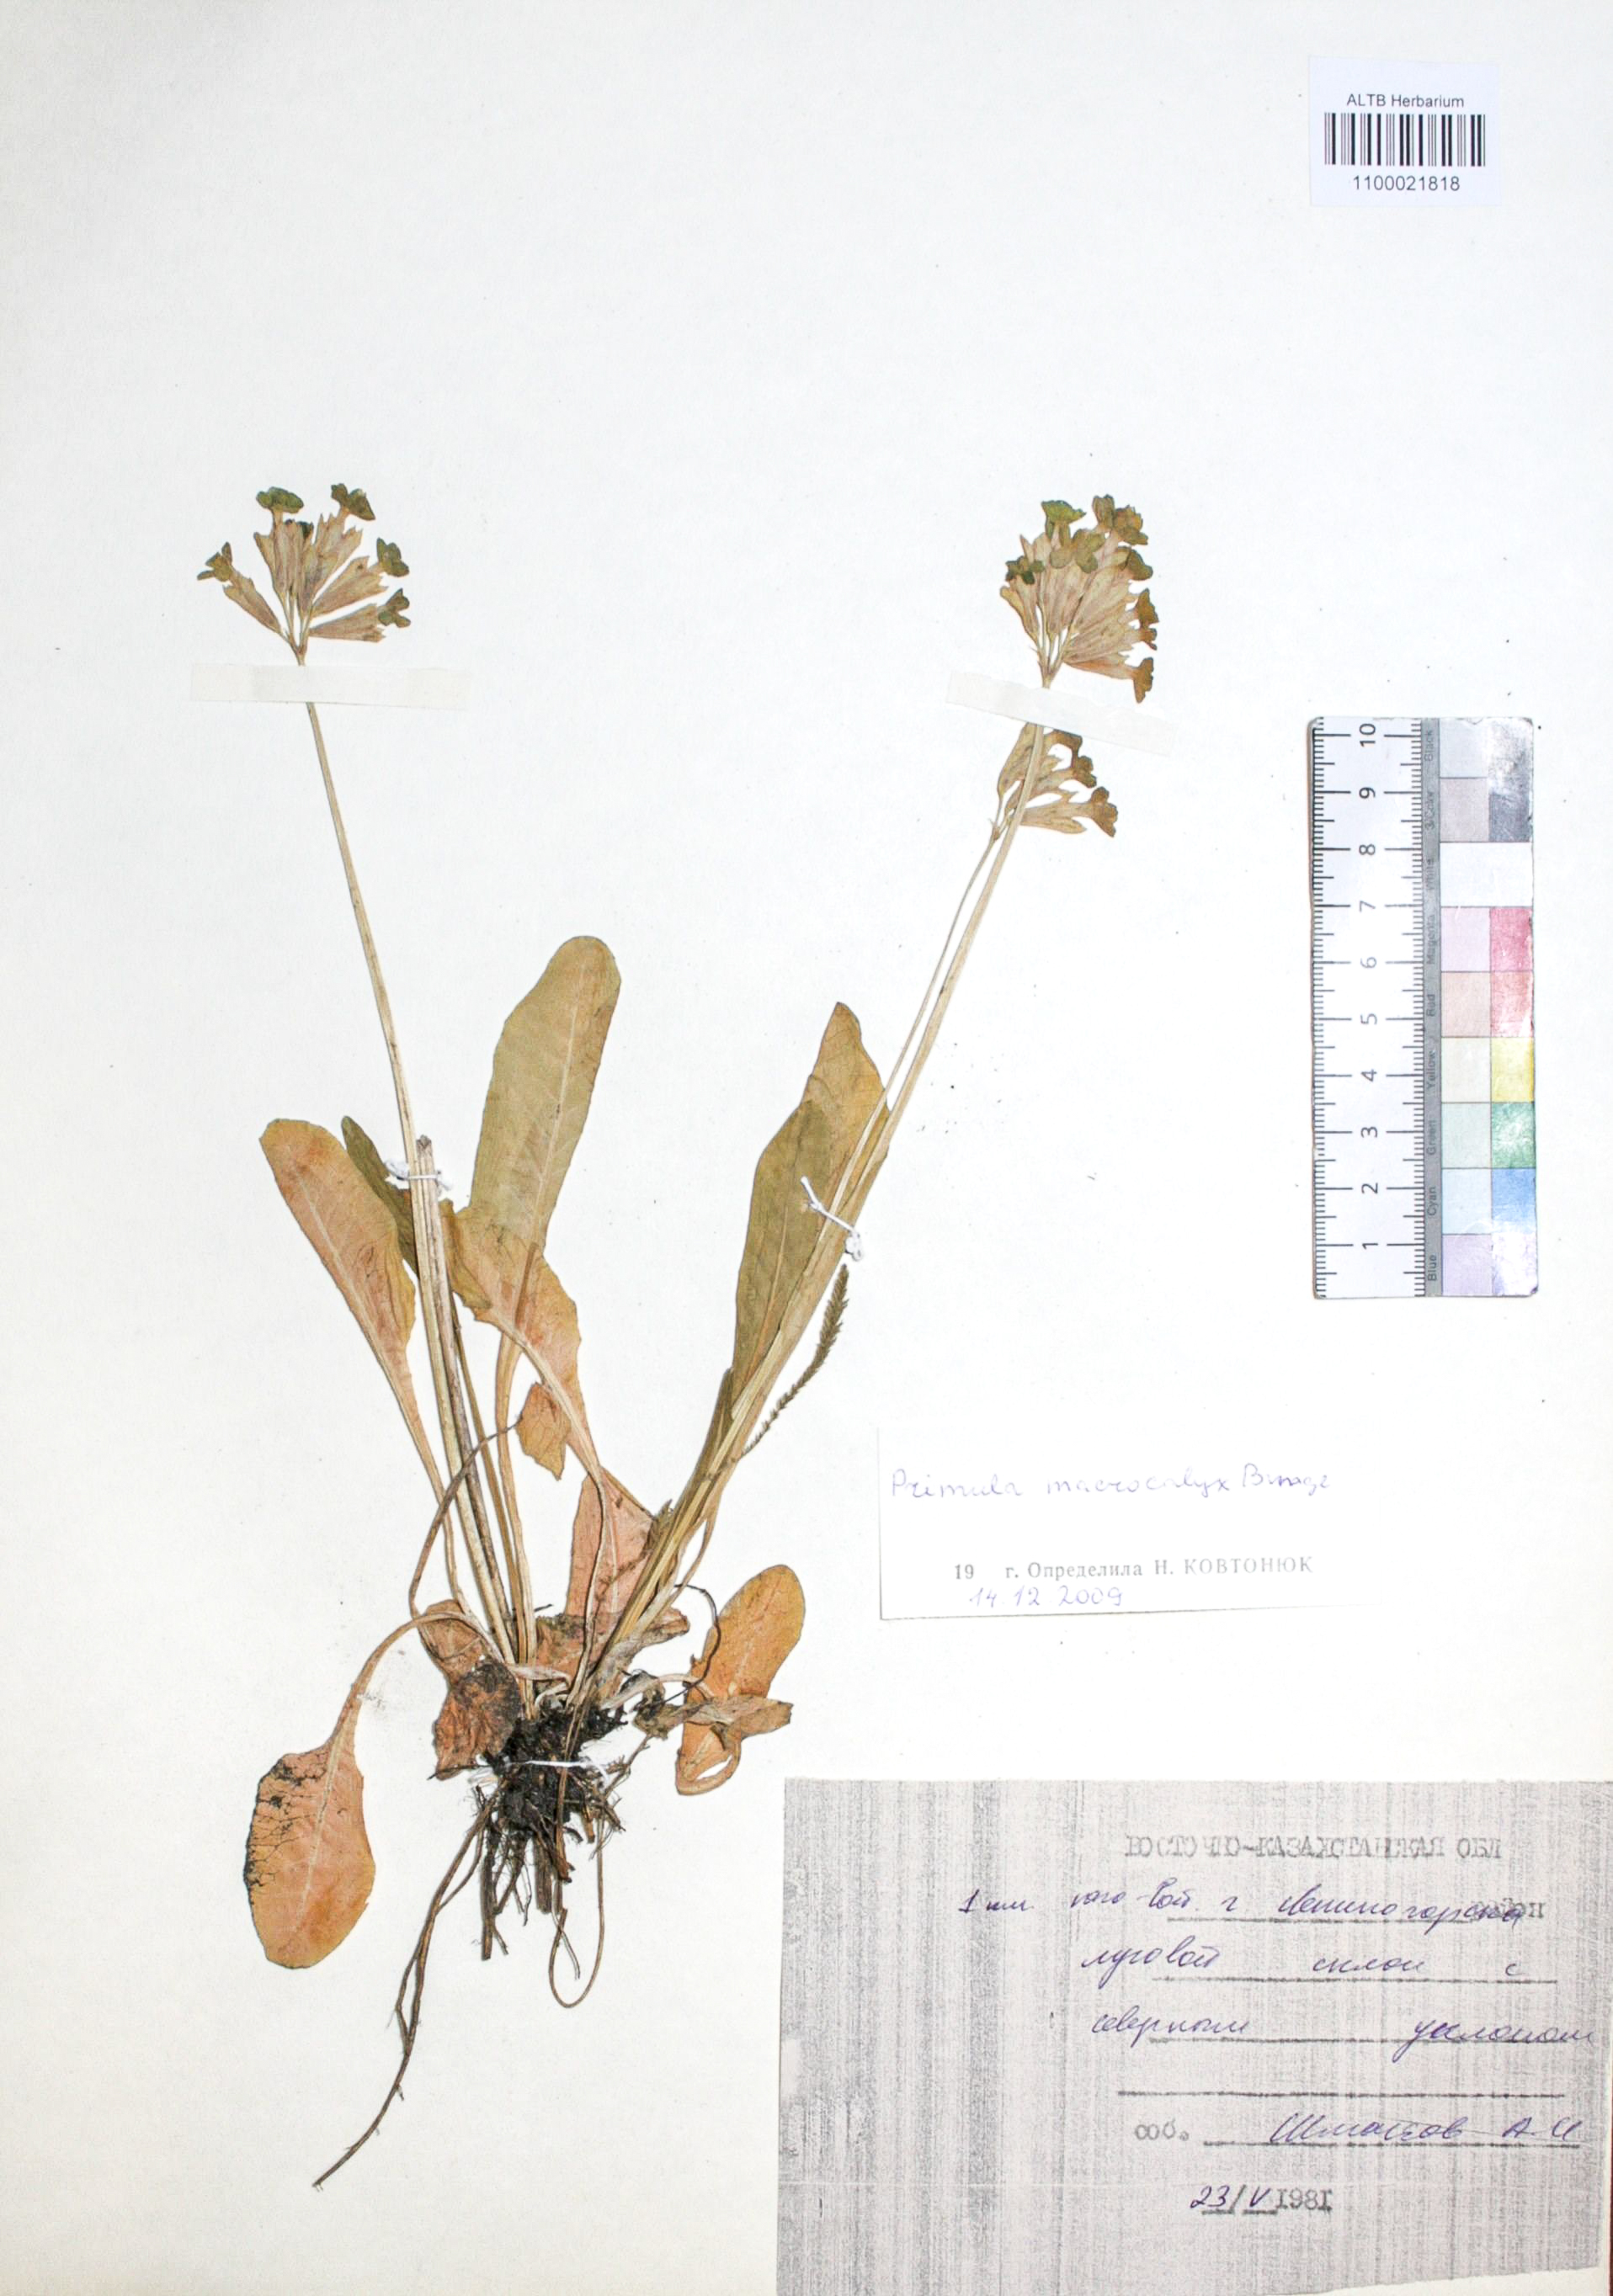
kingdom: Plantae
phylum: Tracheophyta
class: Magnoliopsida
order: Ericales
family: Primulaceae
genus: Primula
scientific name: Primula veris
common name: Cowslip
